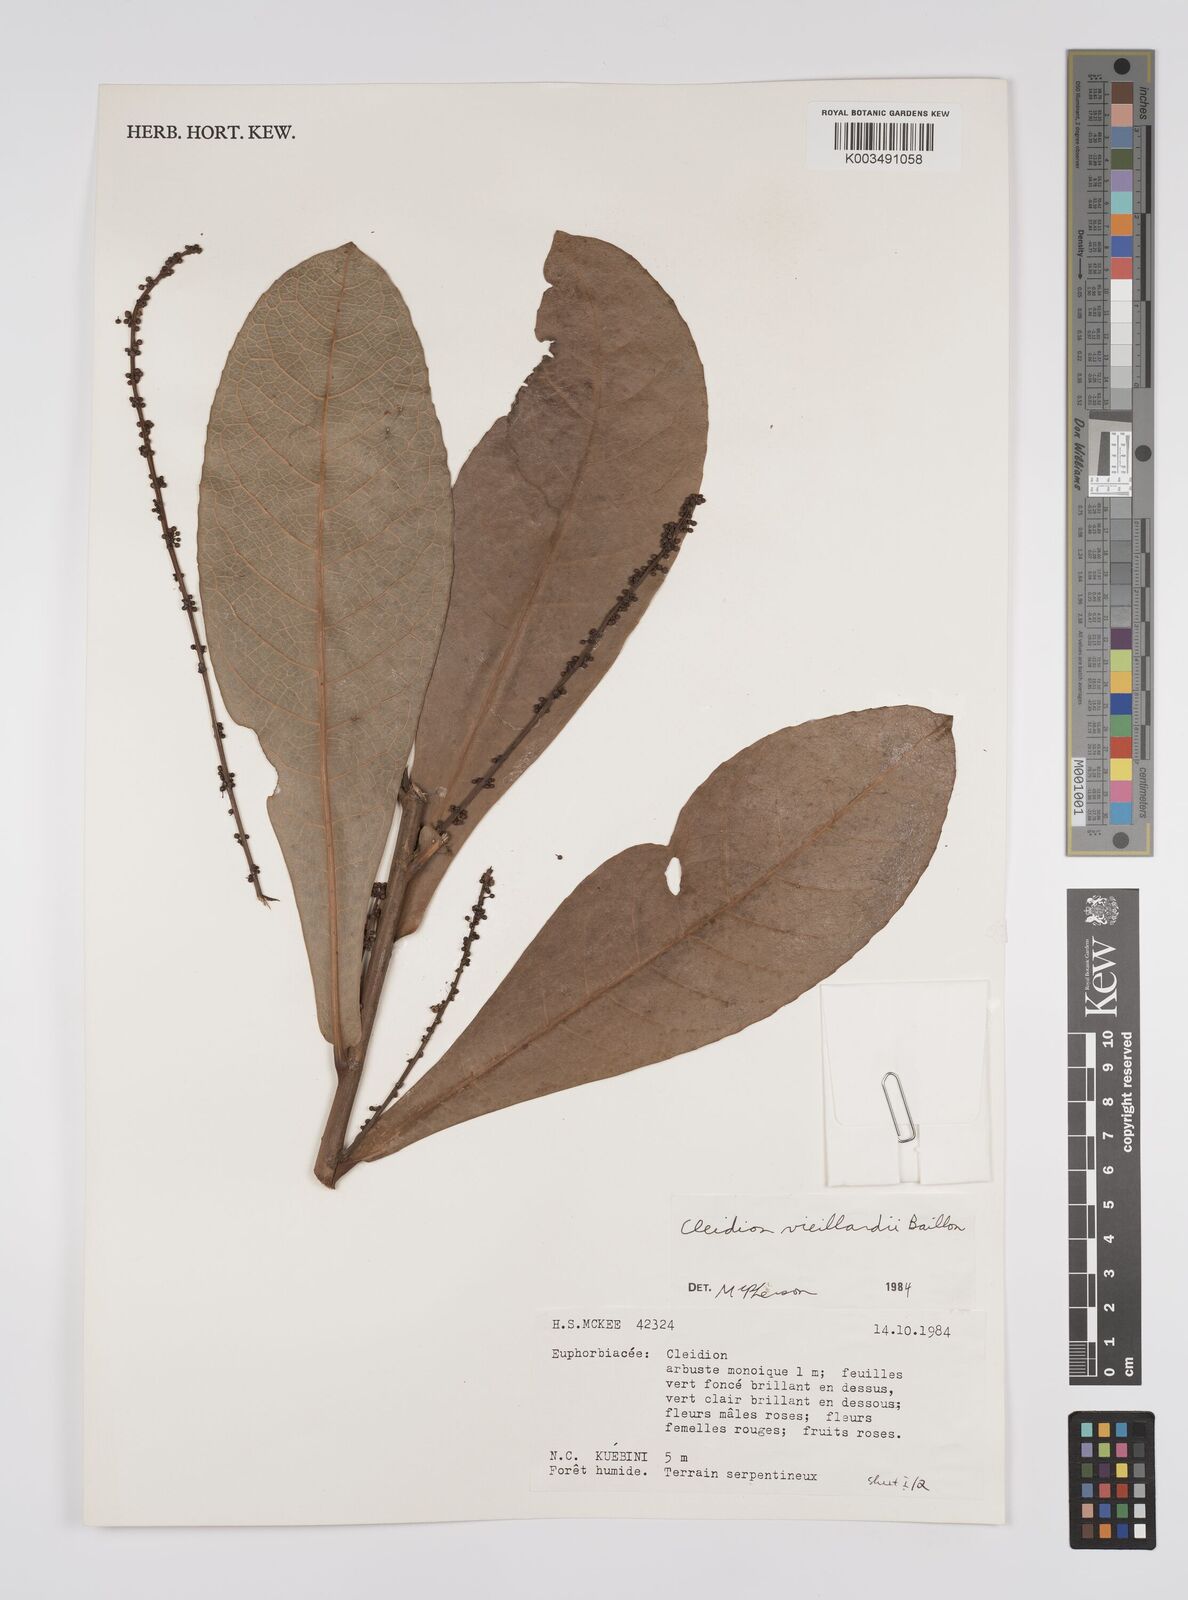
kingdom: Plantae
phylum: Tracheophyta
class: Magnoliopsida
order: Malpighiales
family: Euphorbiaceae
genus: Cleidion
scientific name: Cleidion vieillardii
